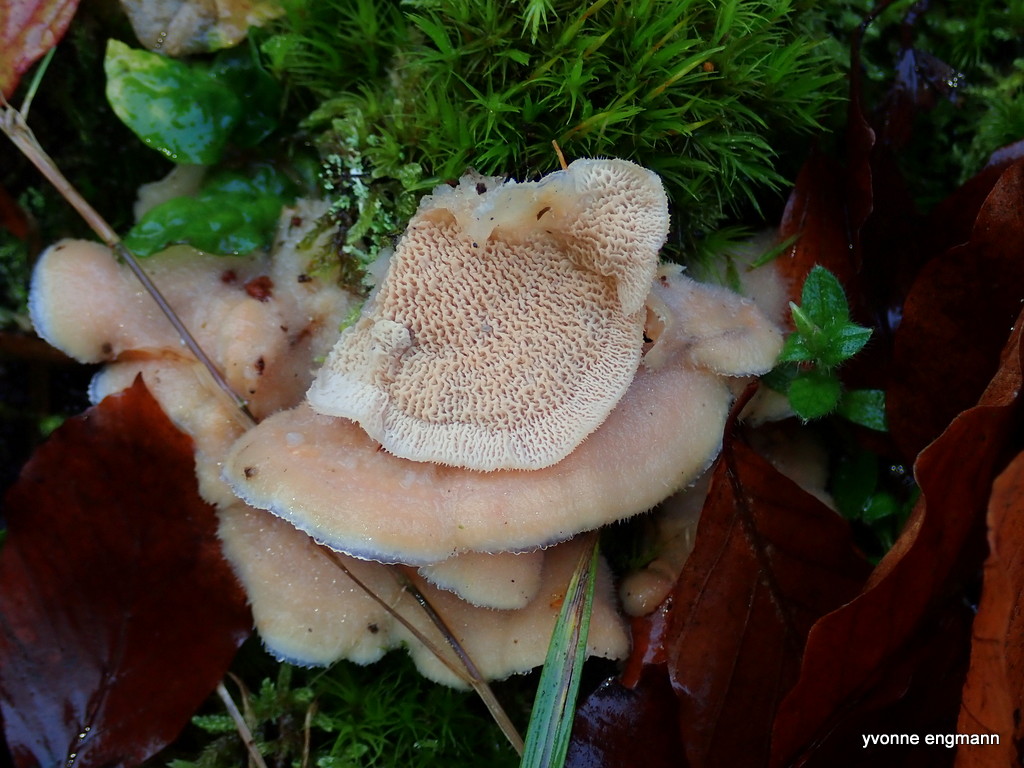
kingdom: Fungi
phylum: Basidiomycota
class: Agaricomycetes
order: Polyporales
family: Meruliaceae
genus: Phlebia
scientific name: Phlebia tremellosa
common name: bævrende åresvamp
